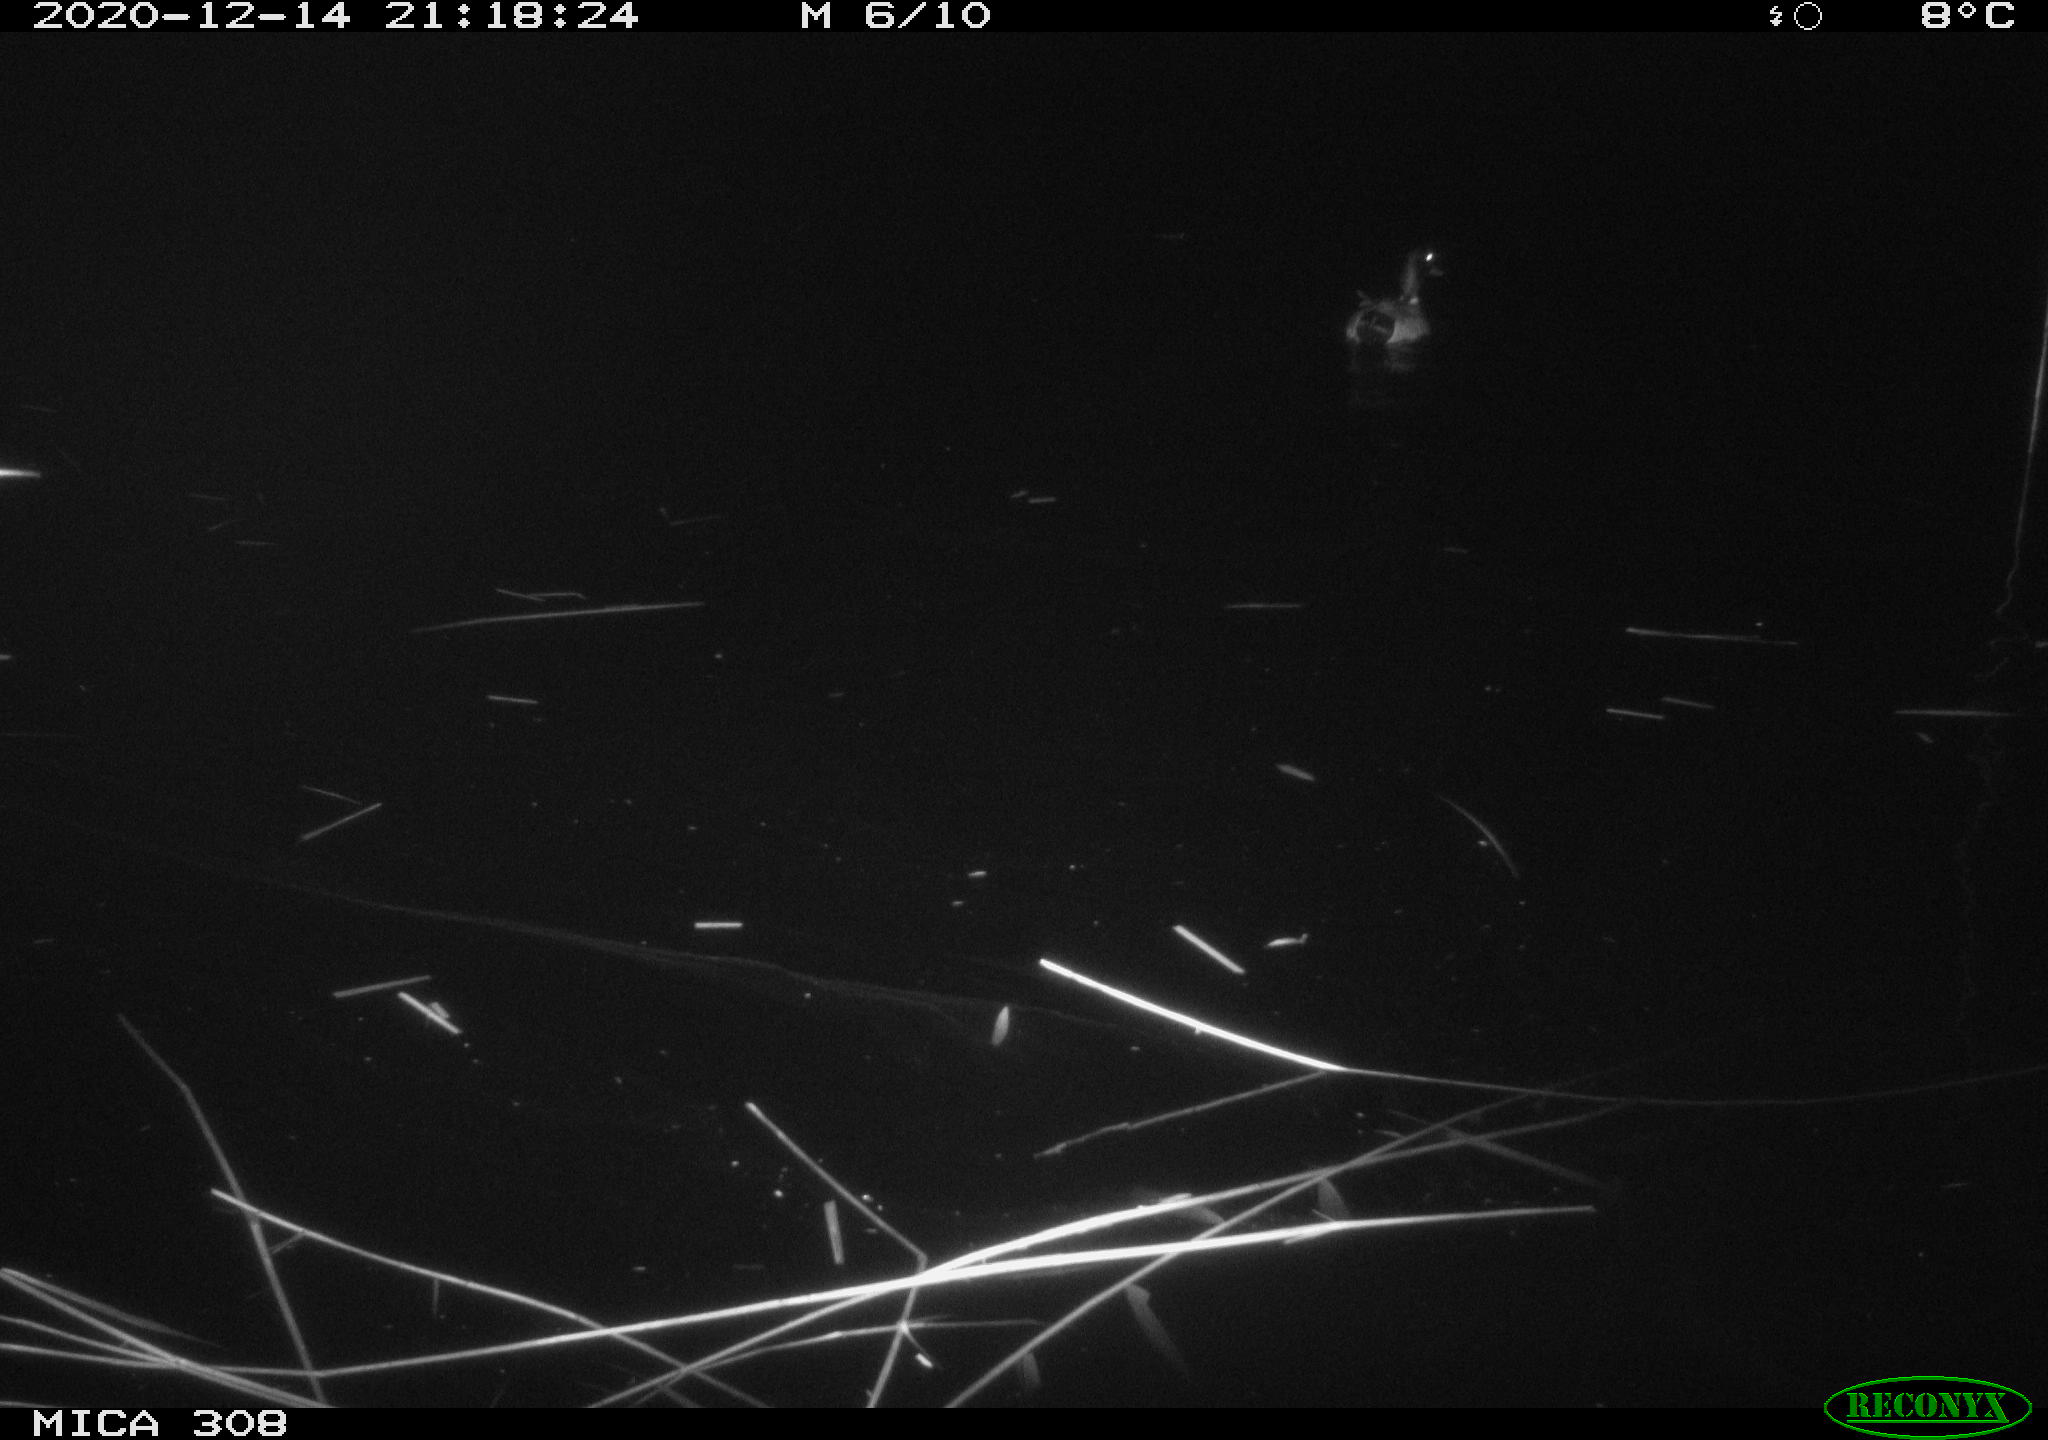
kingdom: Animalia
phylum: Chordata
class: Aves
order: Anseriformes
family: Anatidae
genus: Anas
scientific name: Anas platyrhynchos
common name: Mallard
